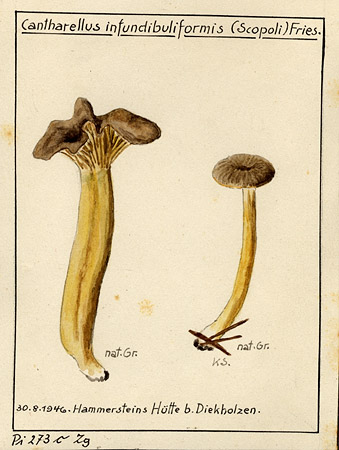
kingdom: Fungi
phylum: Basidiomycota
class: Agaricomycetes
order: Cantharellales
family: Hydnaceae
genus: Craterellus
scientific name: Craterellus tubaeformis
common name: Yellowfoot
